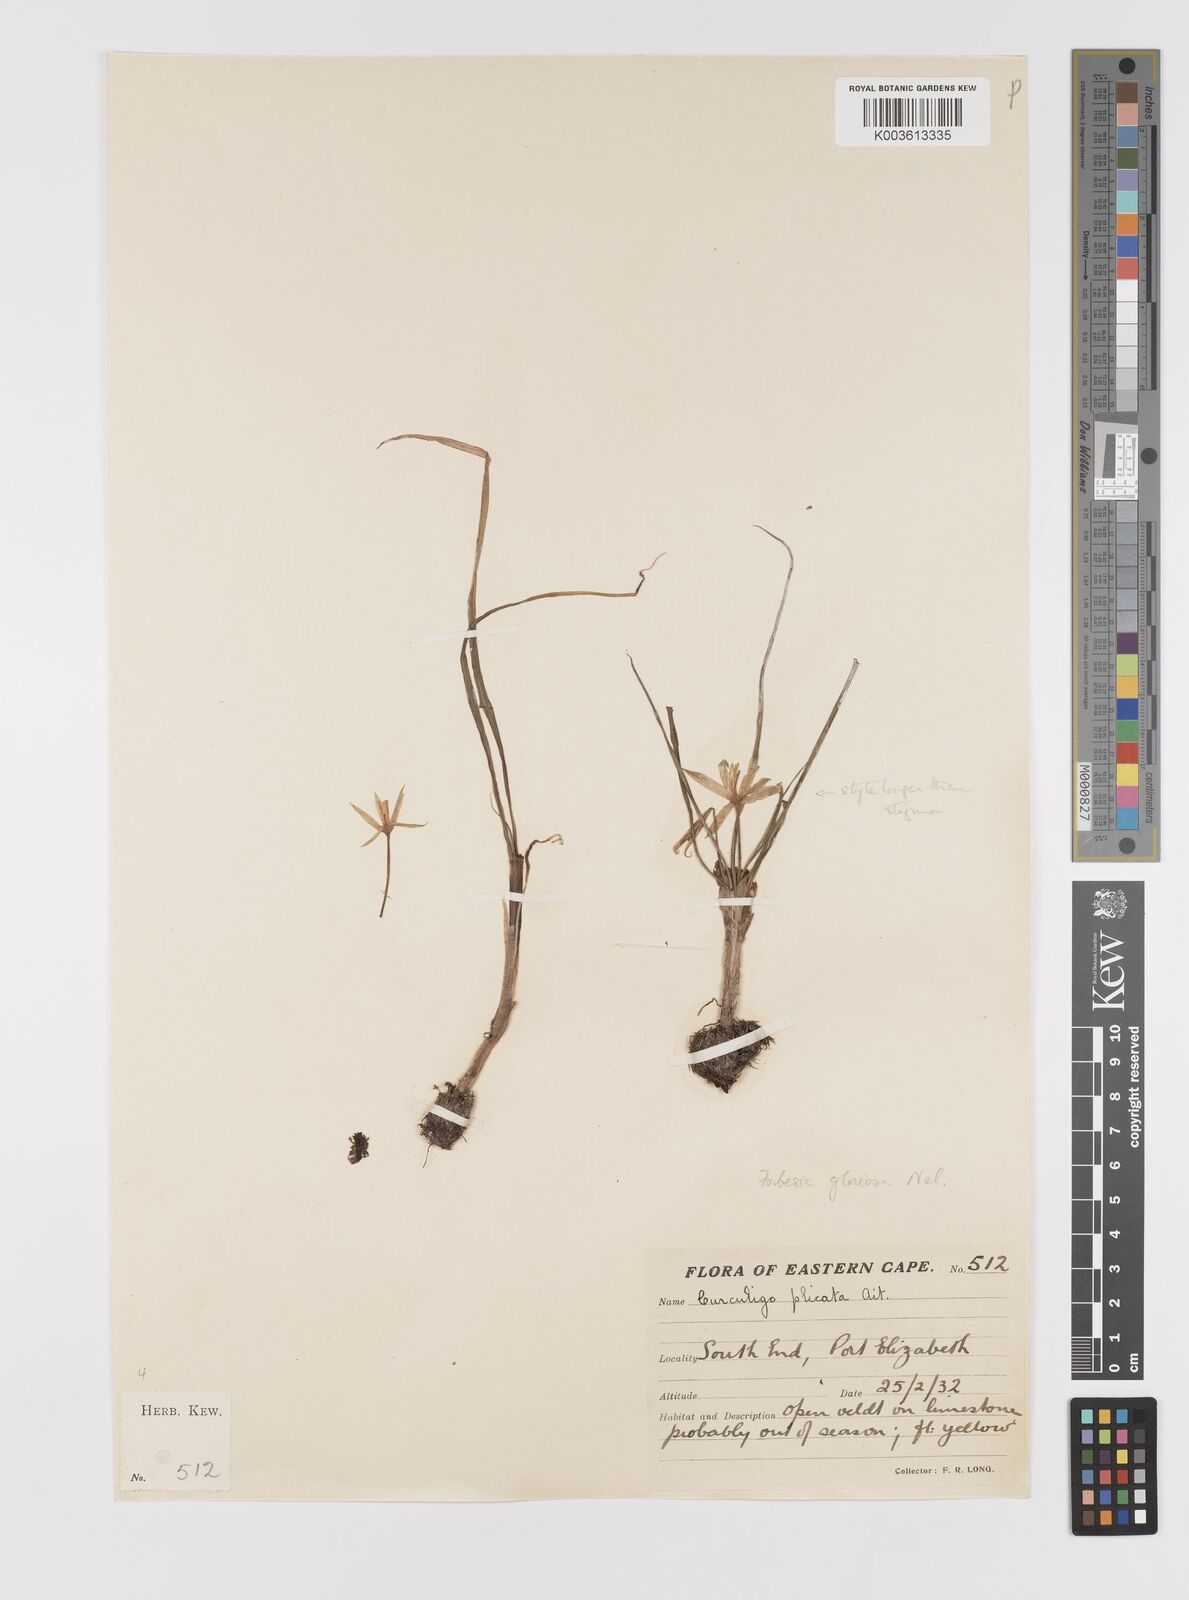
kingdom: Plantae
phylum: Tracheophyta
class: Liliopsida
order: Asparagales
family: Hypoxidaceae
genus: Empodium
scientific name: Empodium elongatum
